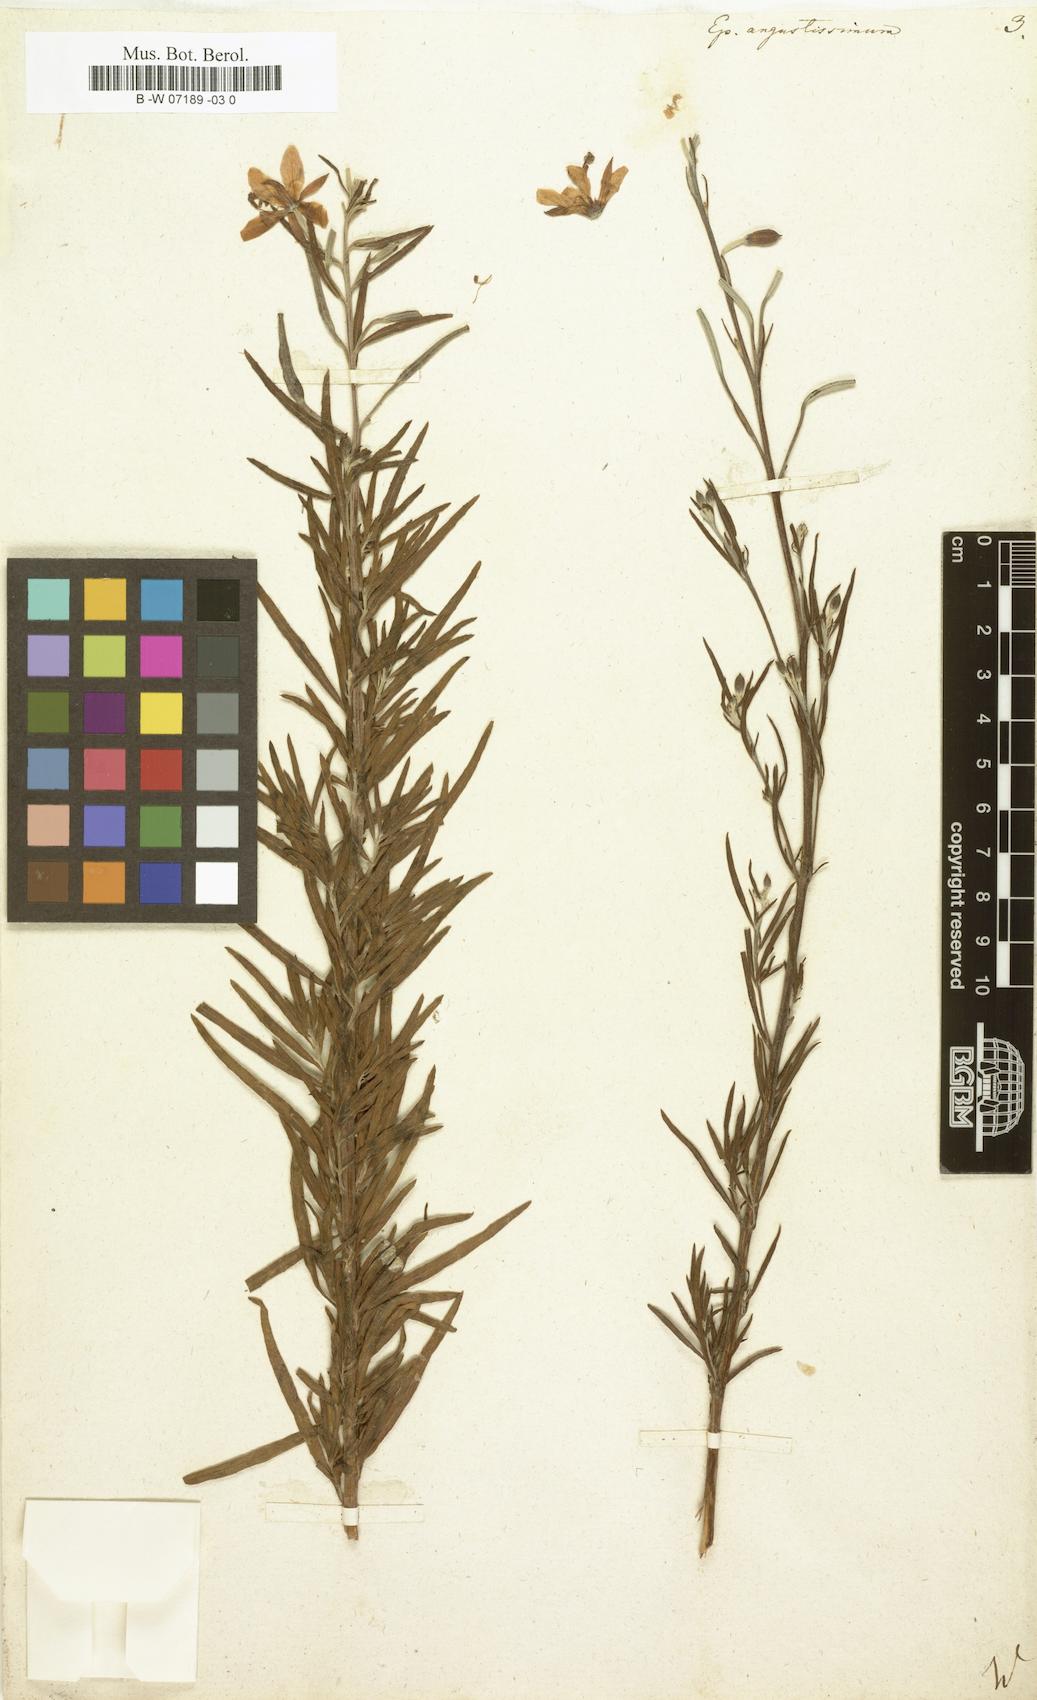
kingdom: Plantae
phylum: Tracheophyta
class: Magnoliopsida
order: Myrtales
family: Onagraceae
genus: Chamaenerion
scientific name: Chamaenerion dodonaei
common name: Rosemary-leaved willowherb
